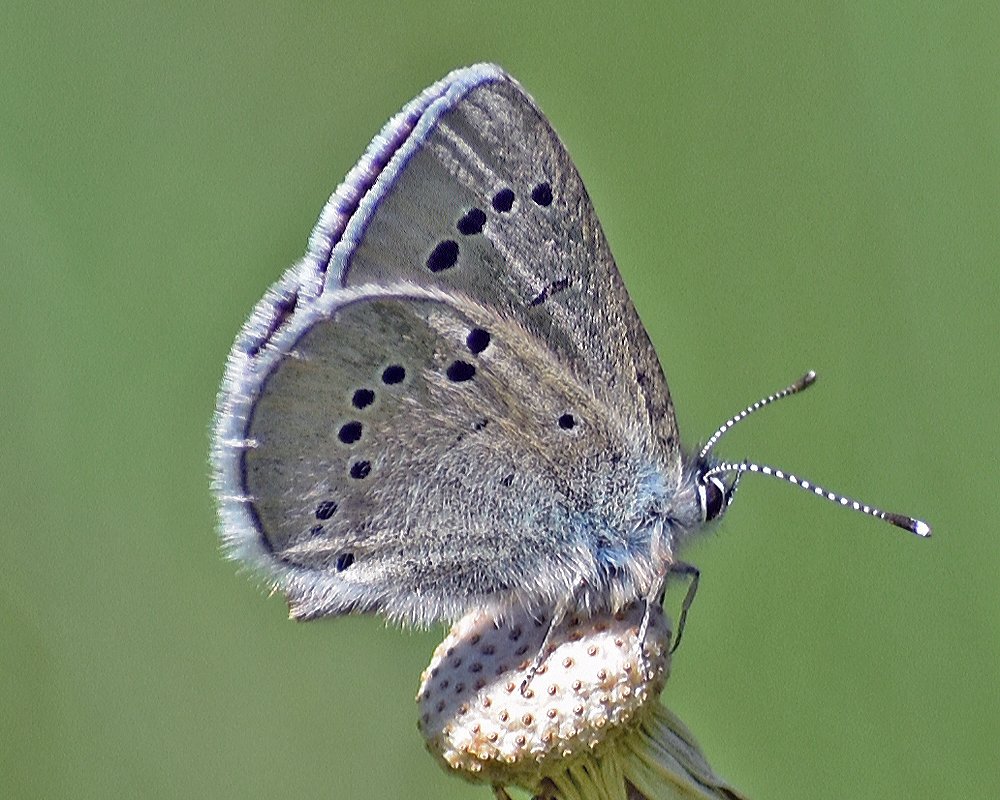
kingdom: Animalia
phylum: Arthropoda
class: Insecta
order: Lepidoptera
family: Lycaenidae
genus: Glaucopsyche
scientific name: Glaucopsyche lygdamus
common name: Silvery Blue
